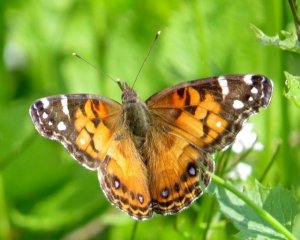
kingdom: Animalia
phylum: Arthropoda
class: Insecta
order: Lepidoptera
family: Nymphalidae
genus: Vanessa
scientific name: Vanessa virginiensis
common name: American Lady
